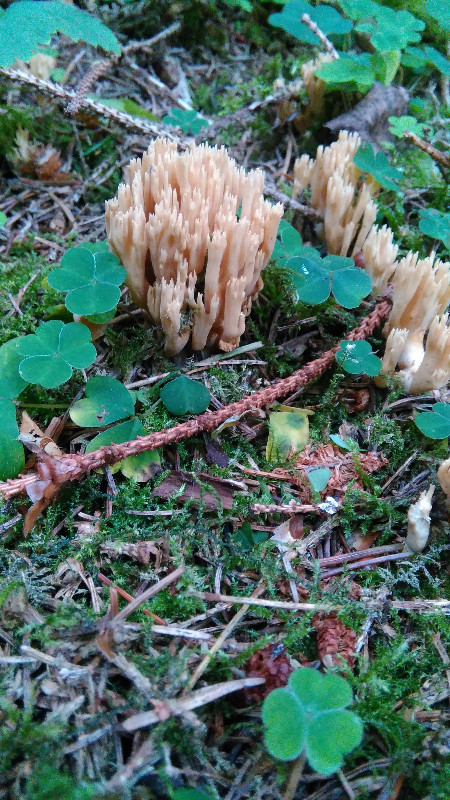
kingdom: Fungi
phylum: Basidiomycota
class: Agaricomycetes
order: Gomphales
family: Gomphaceae
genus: Phaeoclavulina
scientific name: Phaeoclavulina eumorpha
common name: gran-koralsvamp
